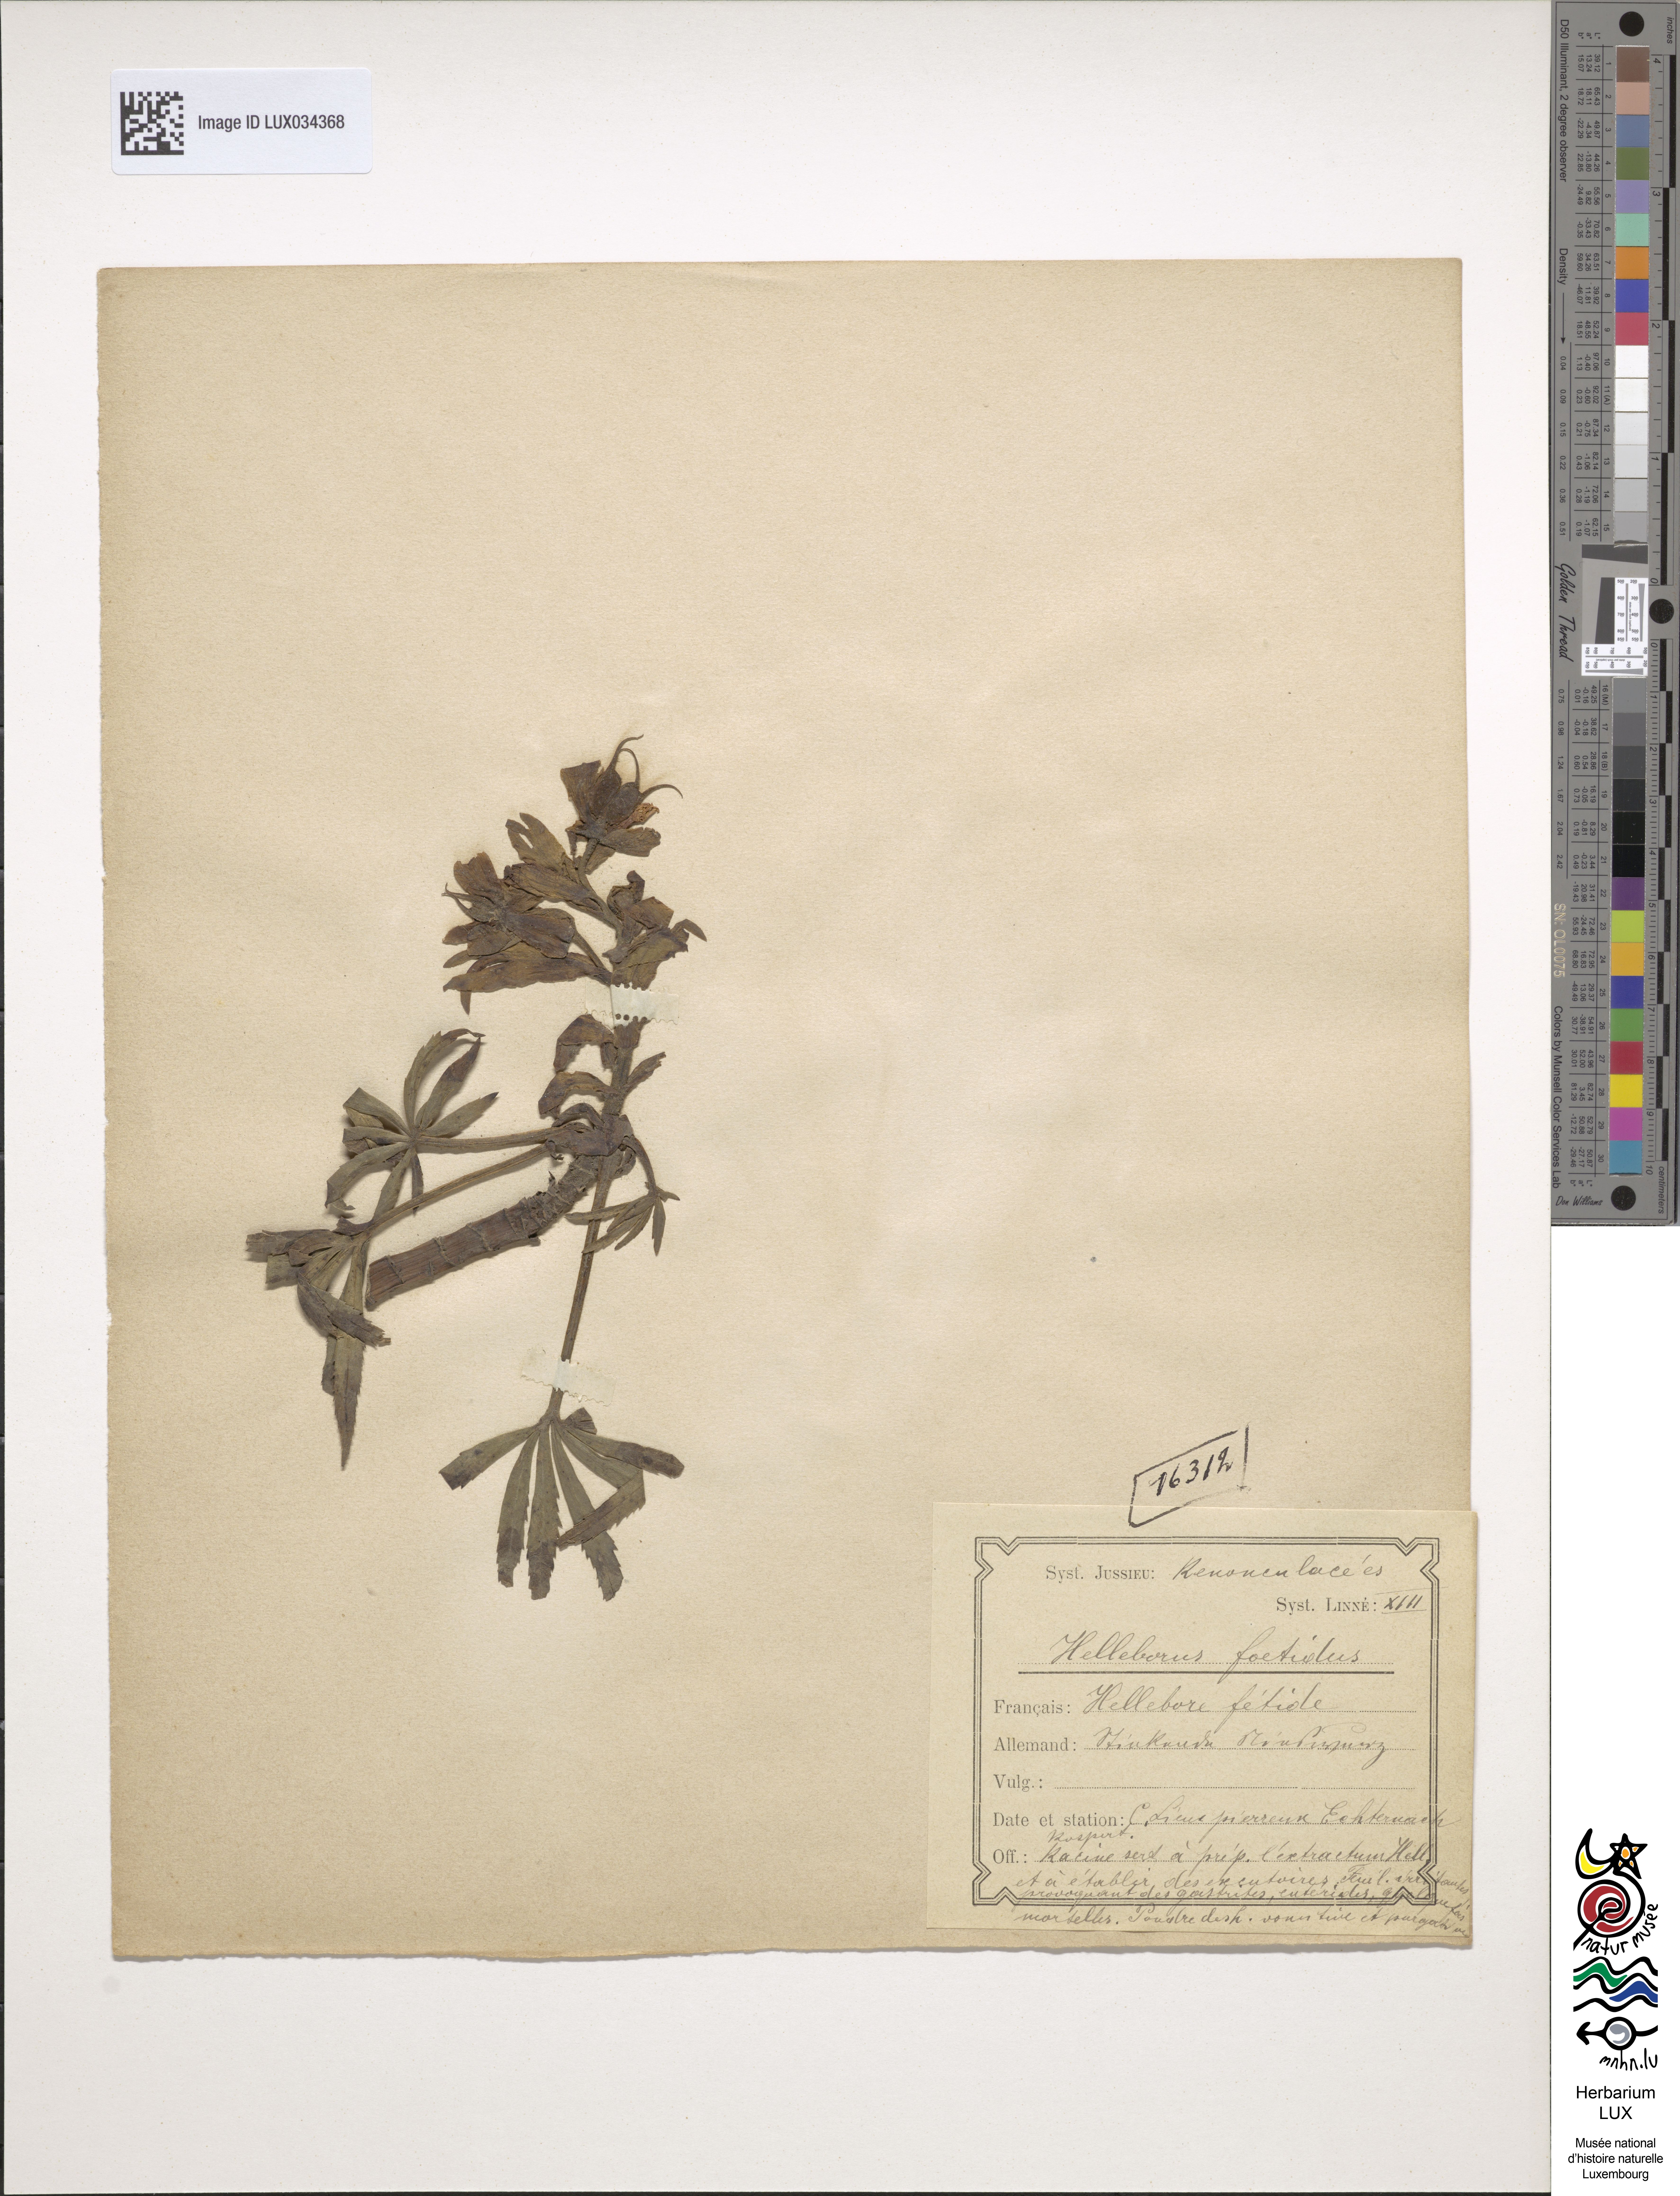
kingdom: Plantae
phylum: Tracheophyta
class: Magnoliopsida
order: Ranunculales
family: Ranunculaceae
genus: Helleborus
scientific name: Helleborus foetidus
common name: Stinking hellebore
